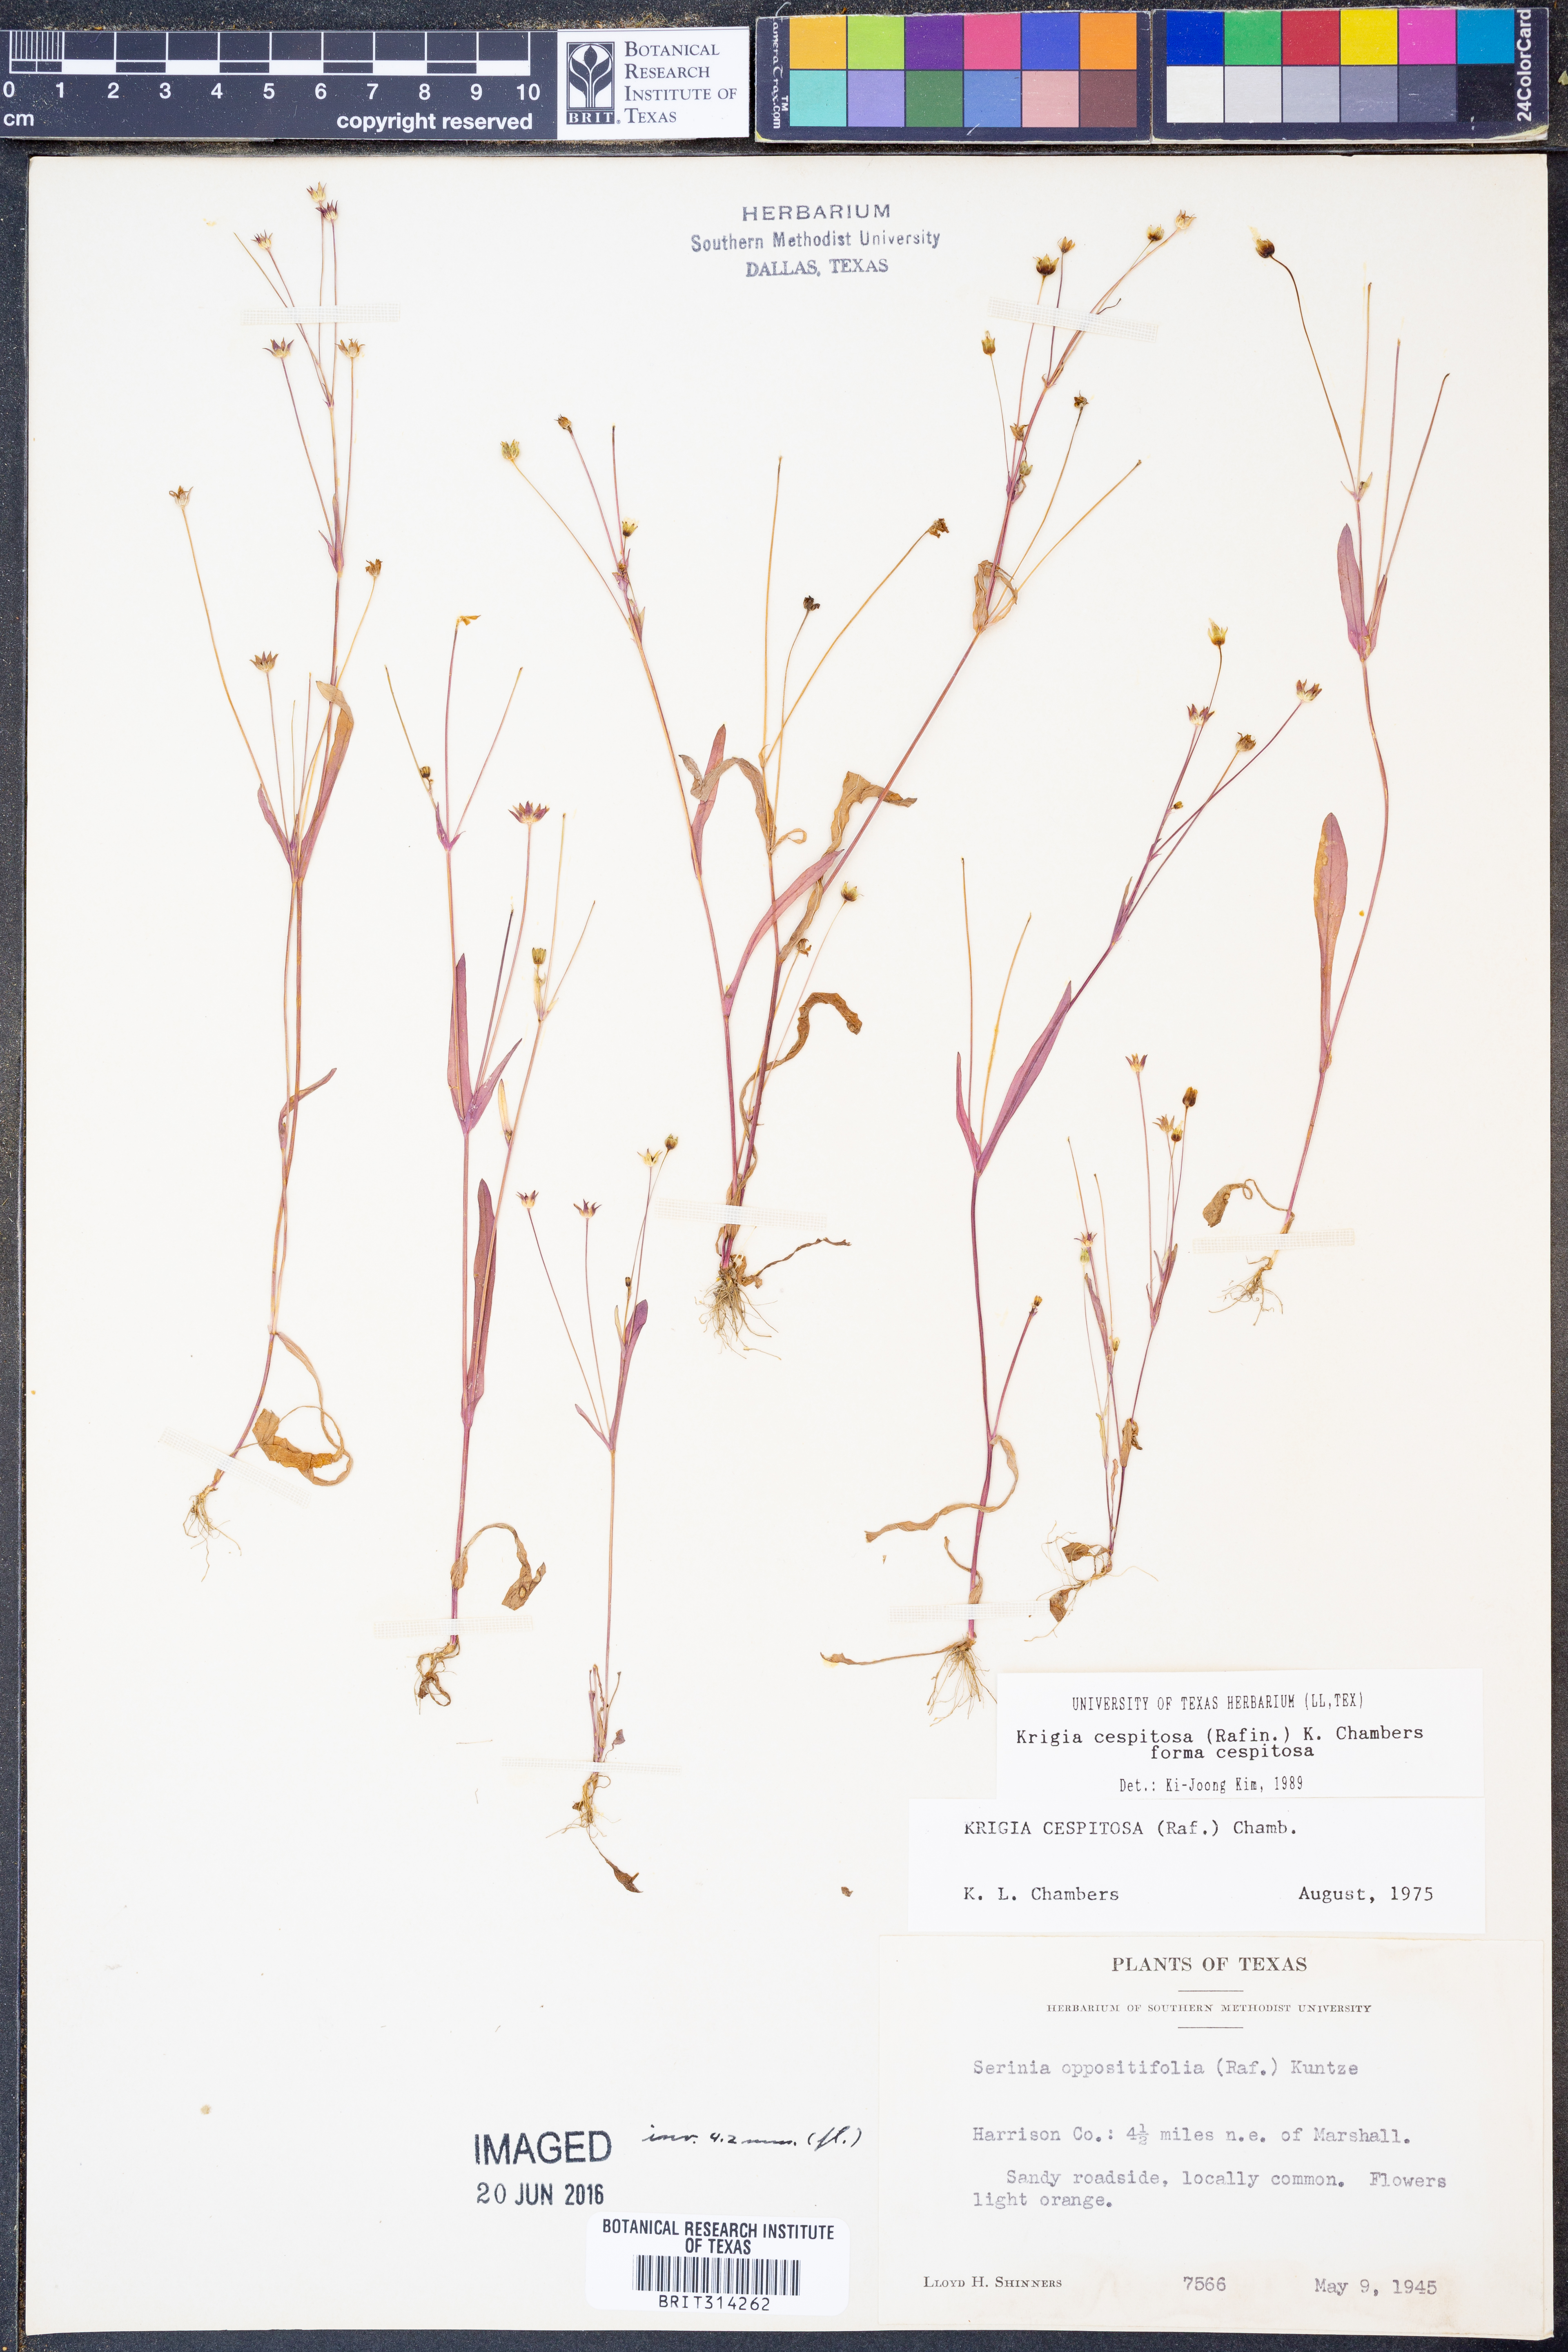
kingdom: Plantae
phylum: Tracheophyta
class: Magnoliopsida
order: Asterales
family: Asteraceae
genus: Krigia
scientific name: Krigia cespitosa
